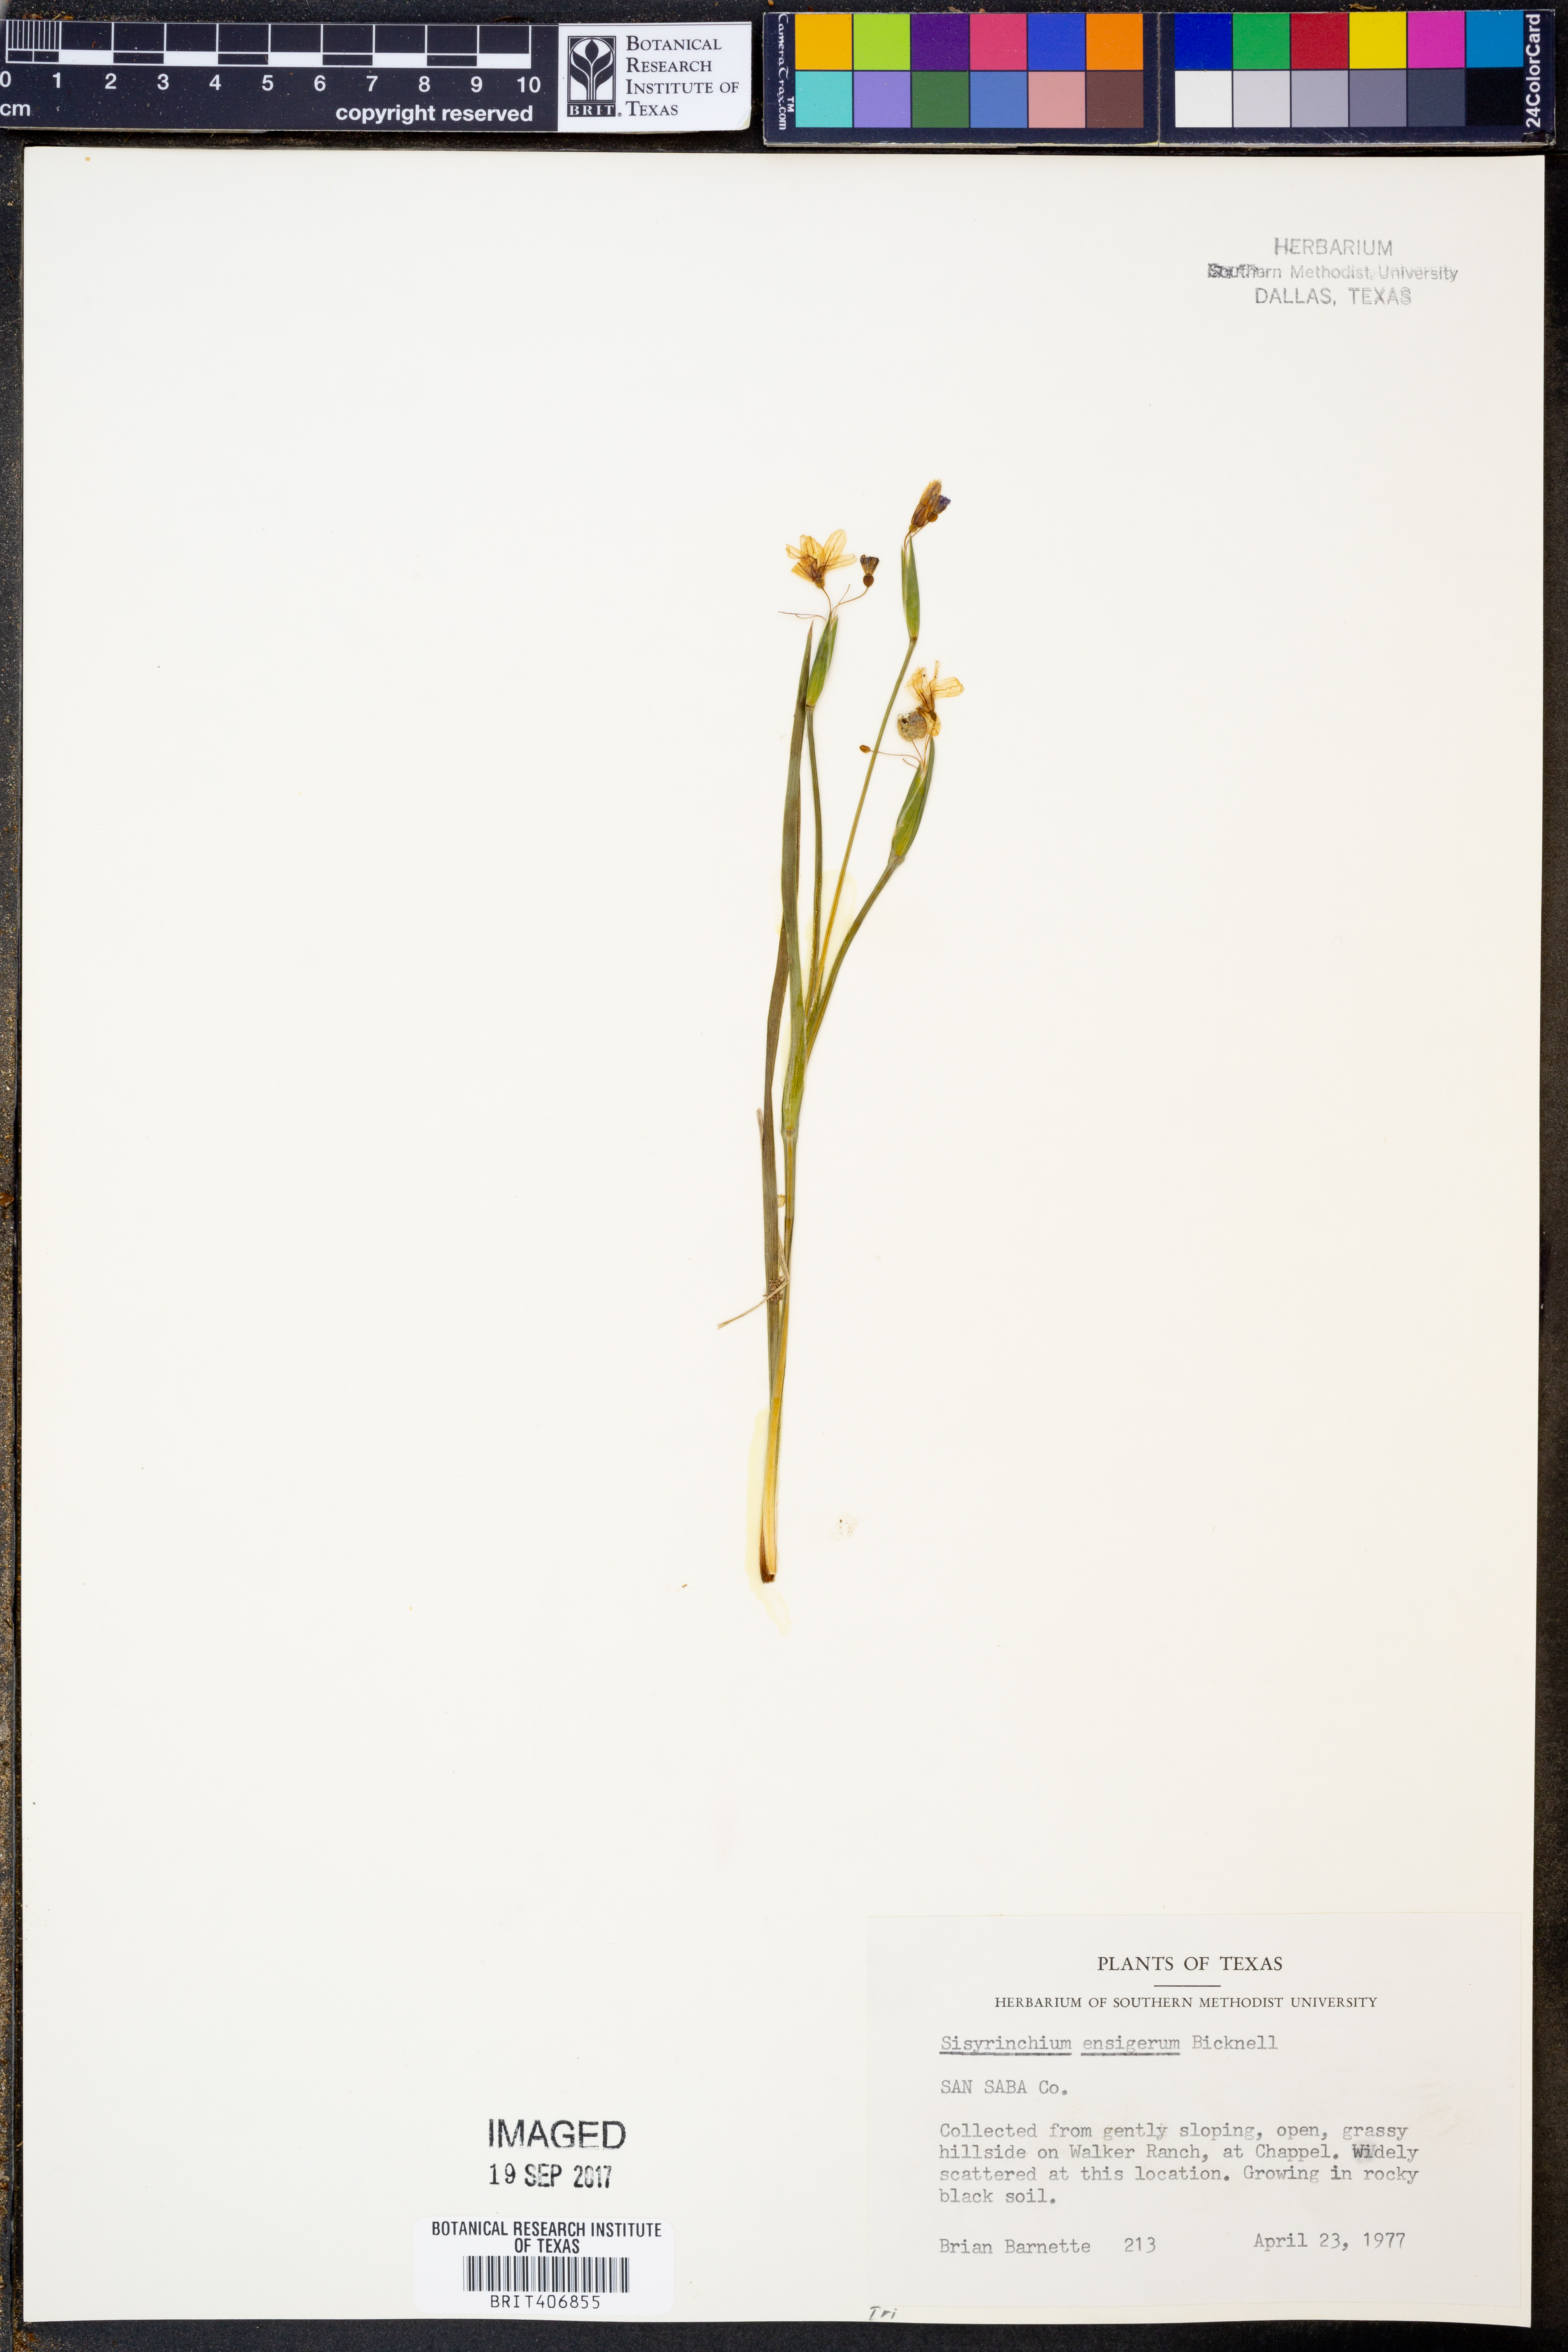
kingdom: Plantae
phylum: Tracheophyta
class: Liliopsida
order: Asparagales
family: Iridaceae
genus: Sisyrinchium
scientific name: Sisyrinchium ensigerum
